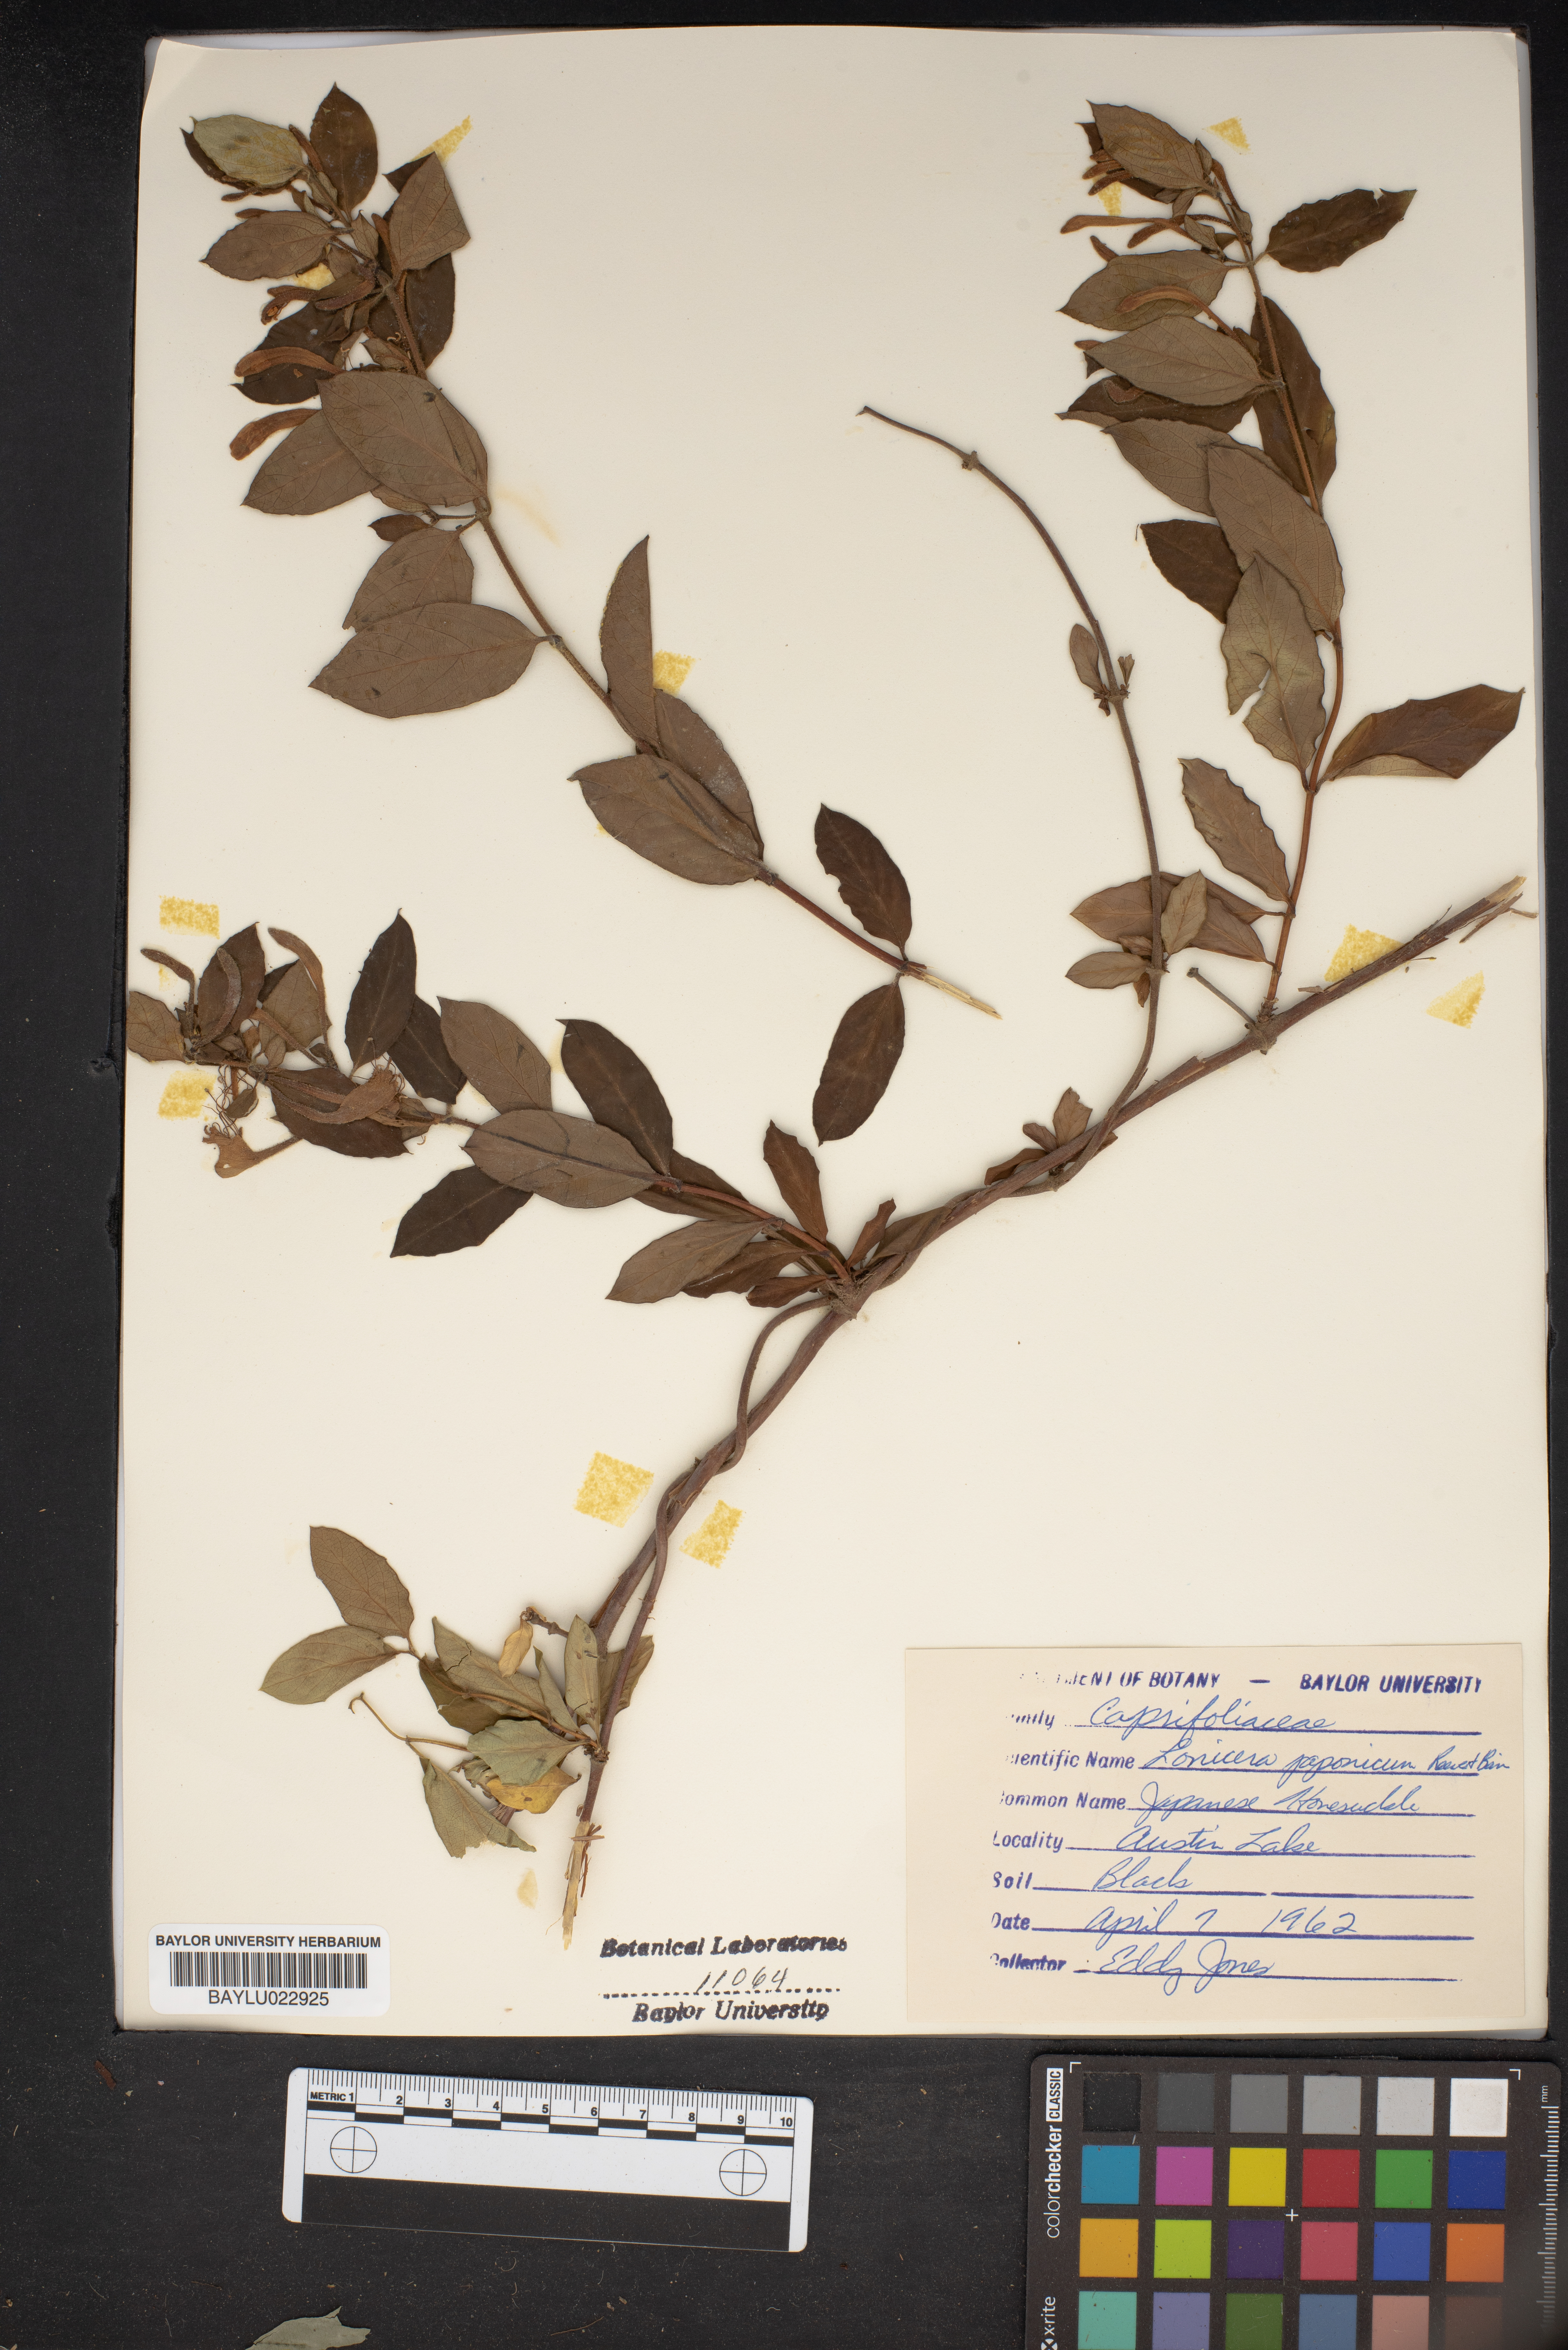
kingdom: Plantae
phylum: Tracheophyta
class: Magnoliopsida
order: Dipsacales
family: Caprifoliaceae
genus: Lonicera
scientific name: Lonicera japonica
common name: Japanese honeysuckle
